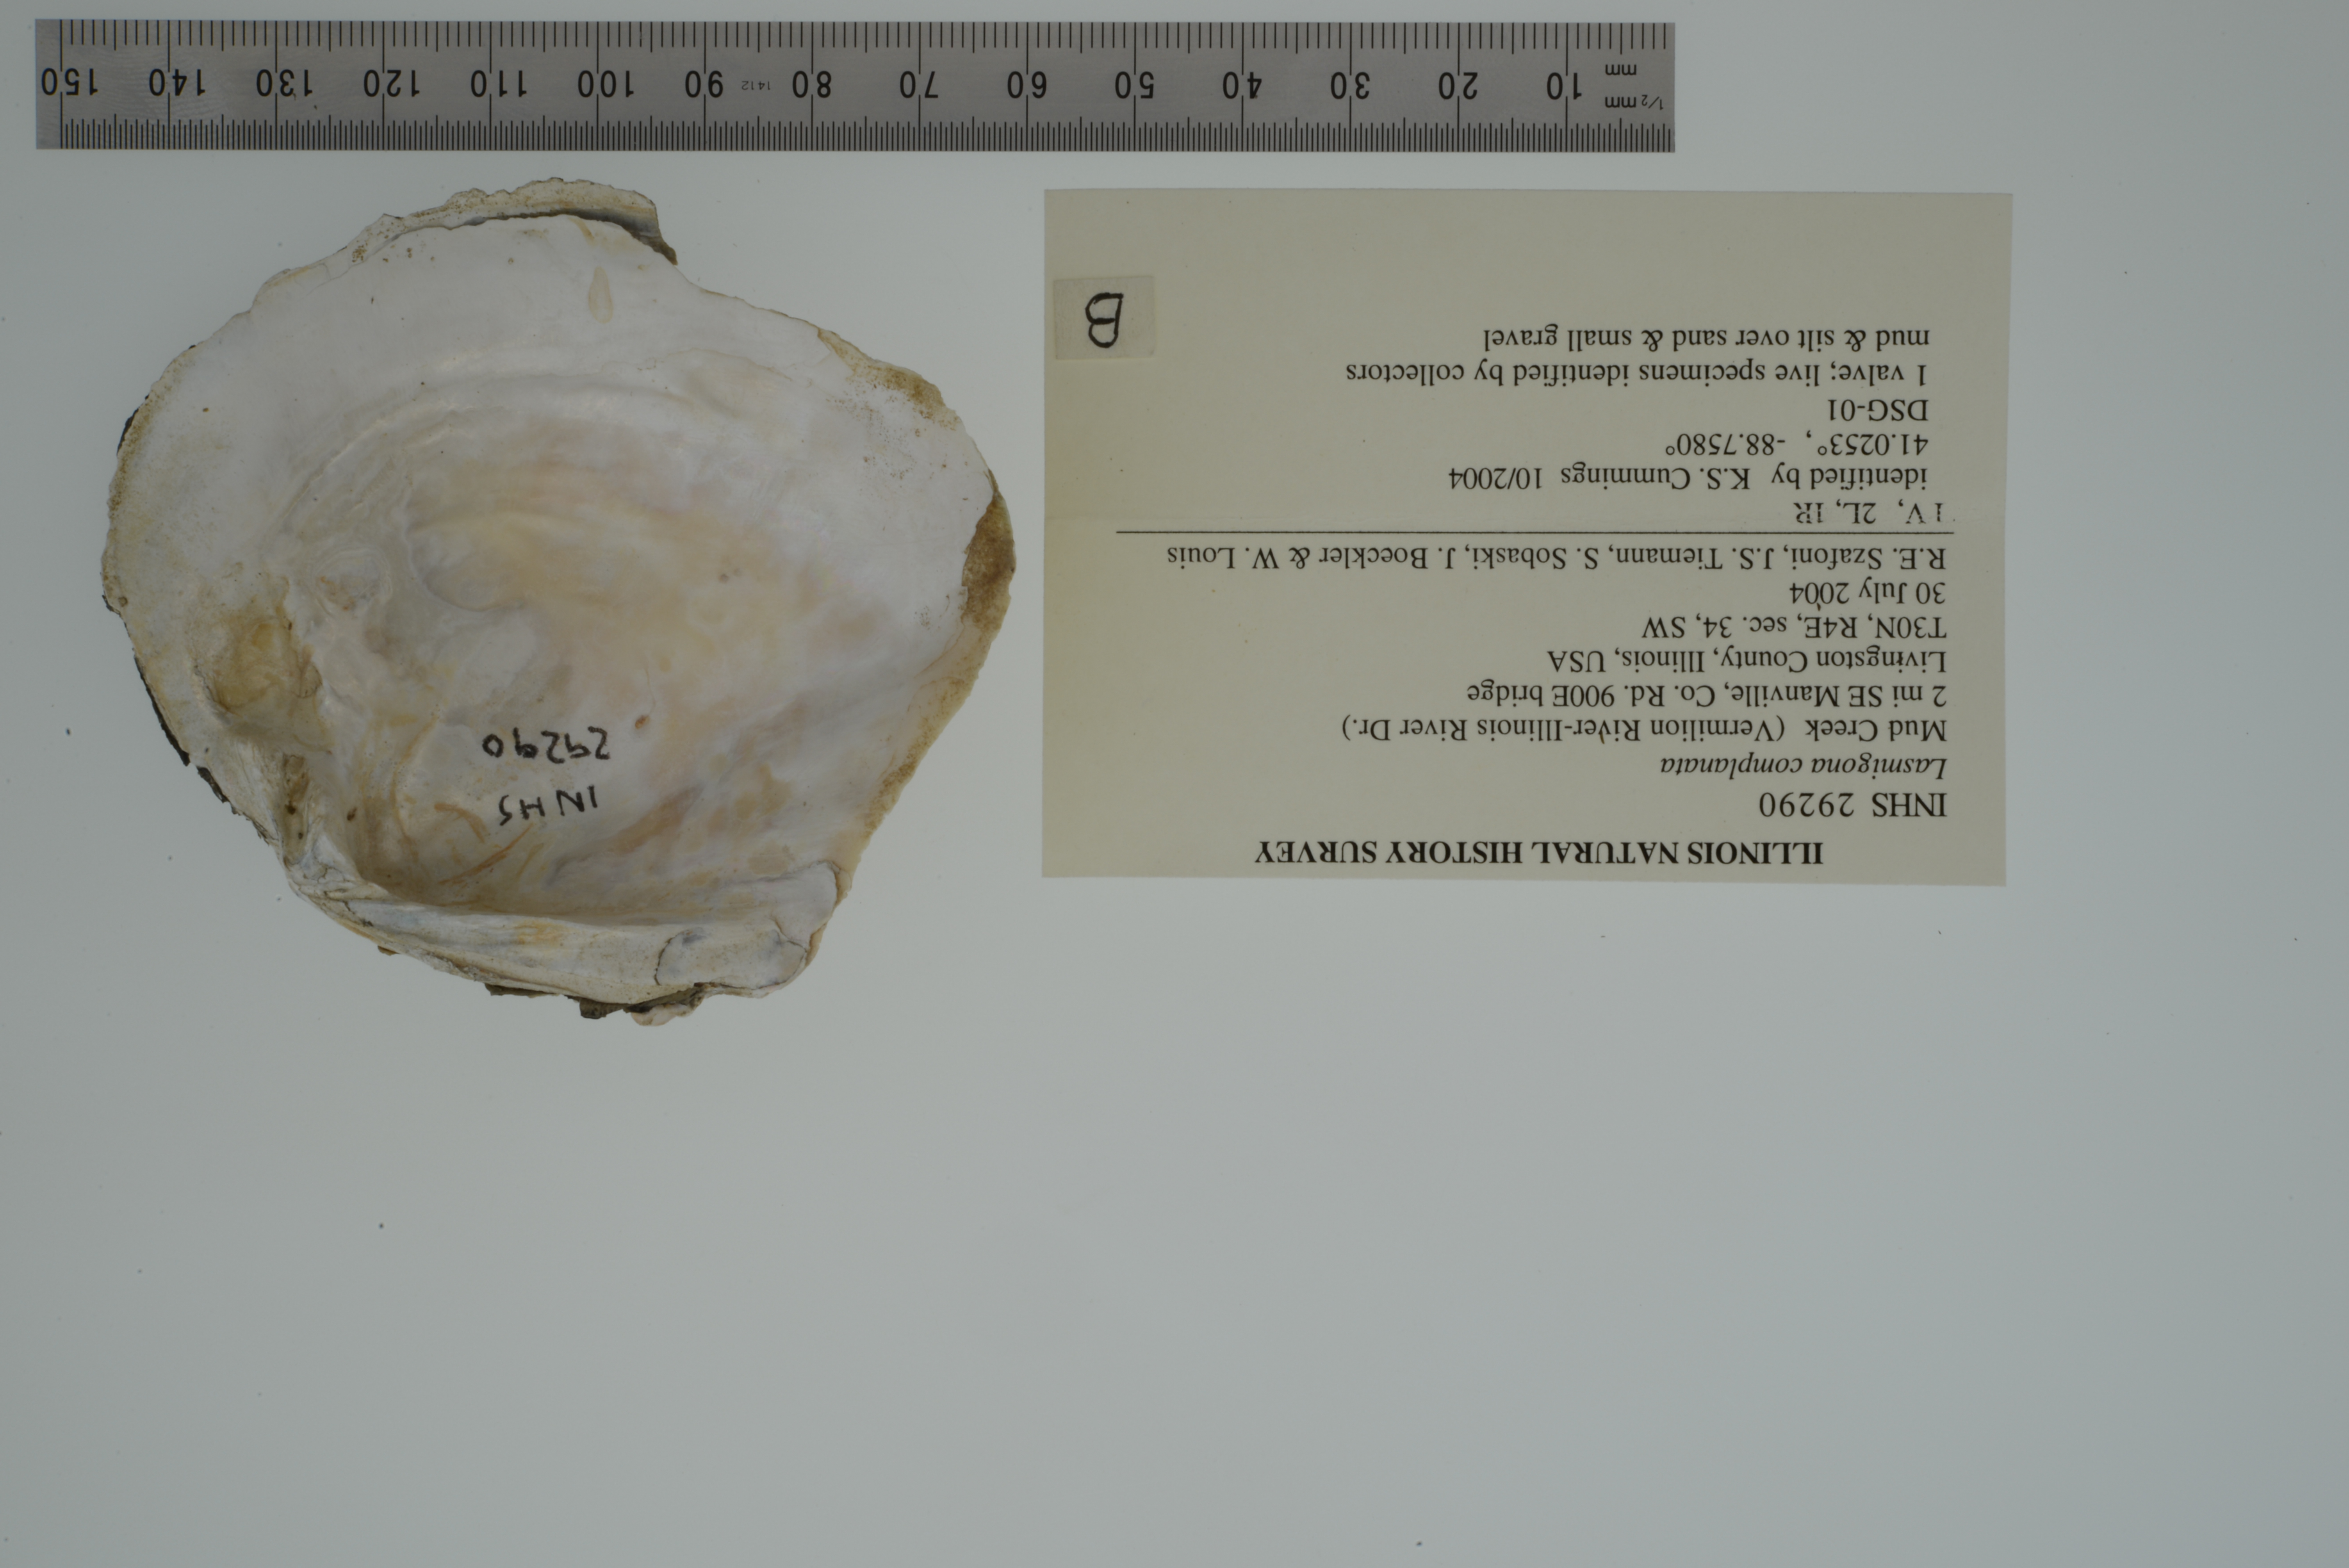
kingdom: Animalia
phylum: Mollusca
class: Bivalvia
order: Unionida
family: Unionidae
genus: Lasmigona
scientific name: Lasmigona complanata
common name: White heelsplitter
